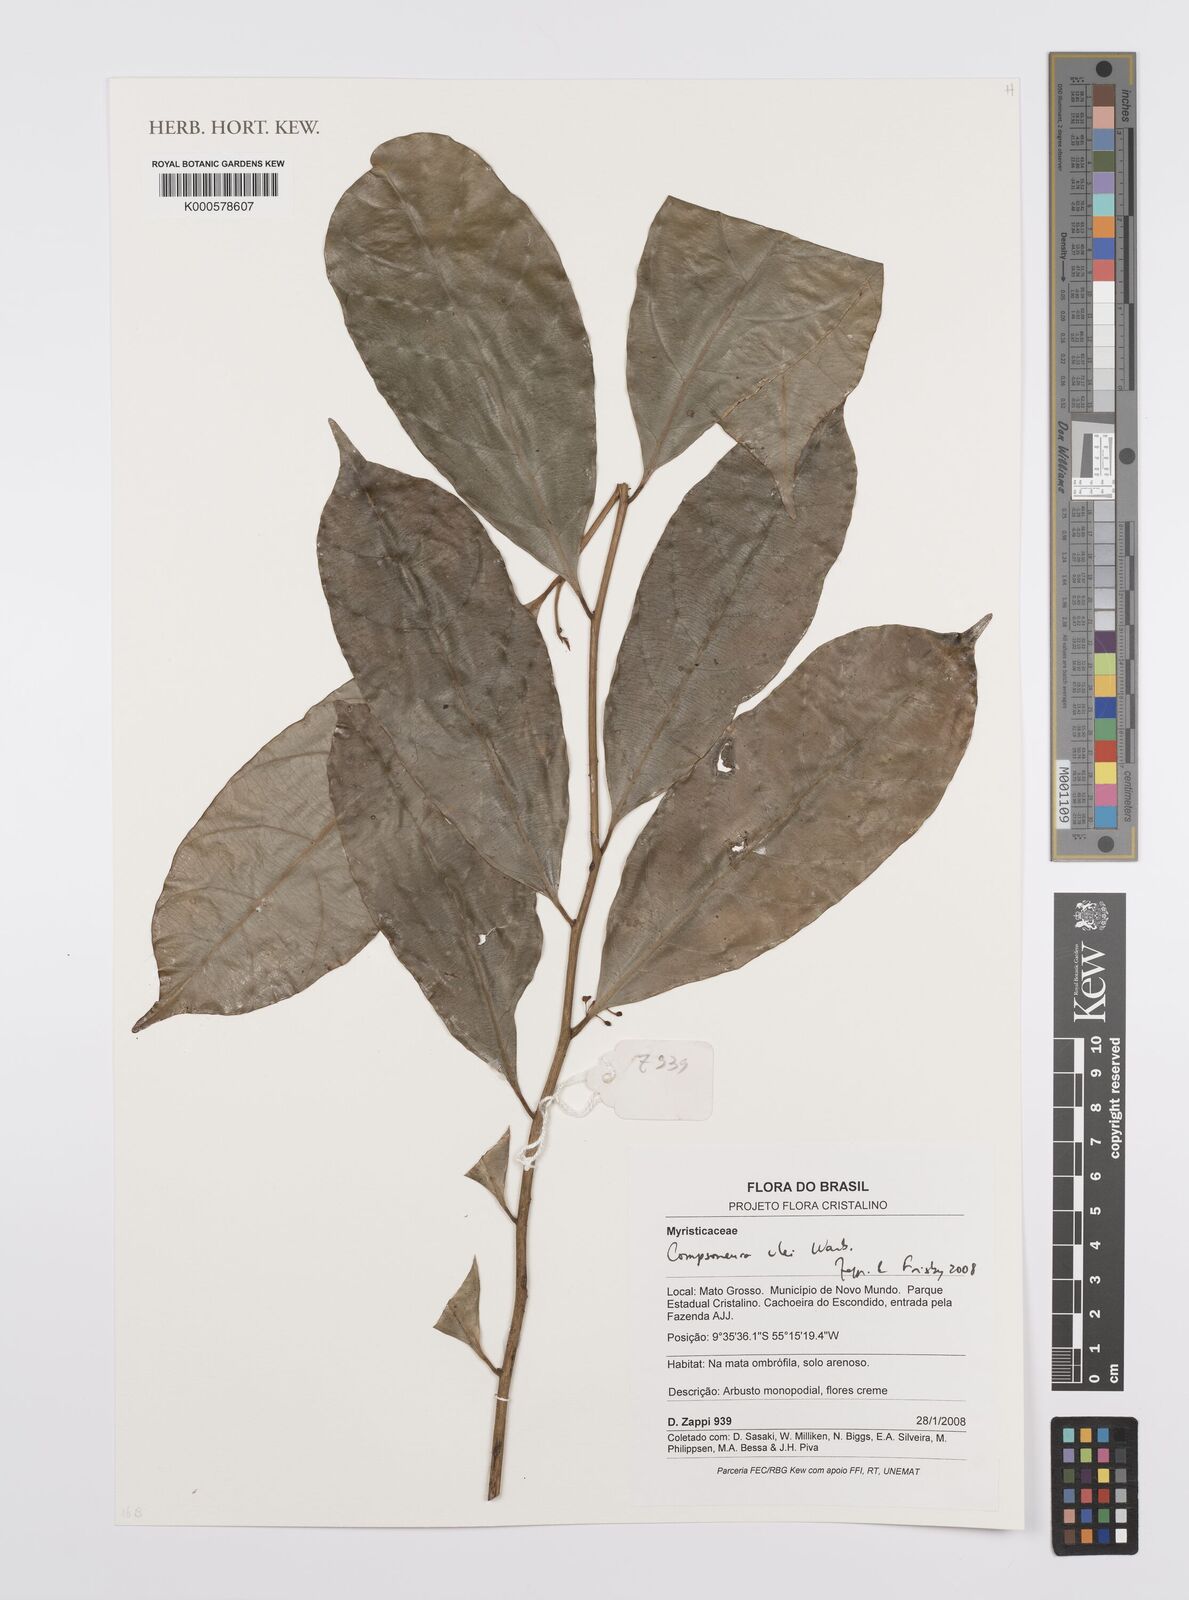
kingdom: Plantae
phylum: Tracheophyta
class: Magnoliopsida
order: Magnoliales
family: Myristicaceae
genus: Compsoneura
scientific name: Compsoneura ulei
